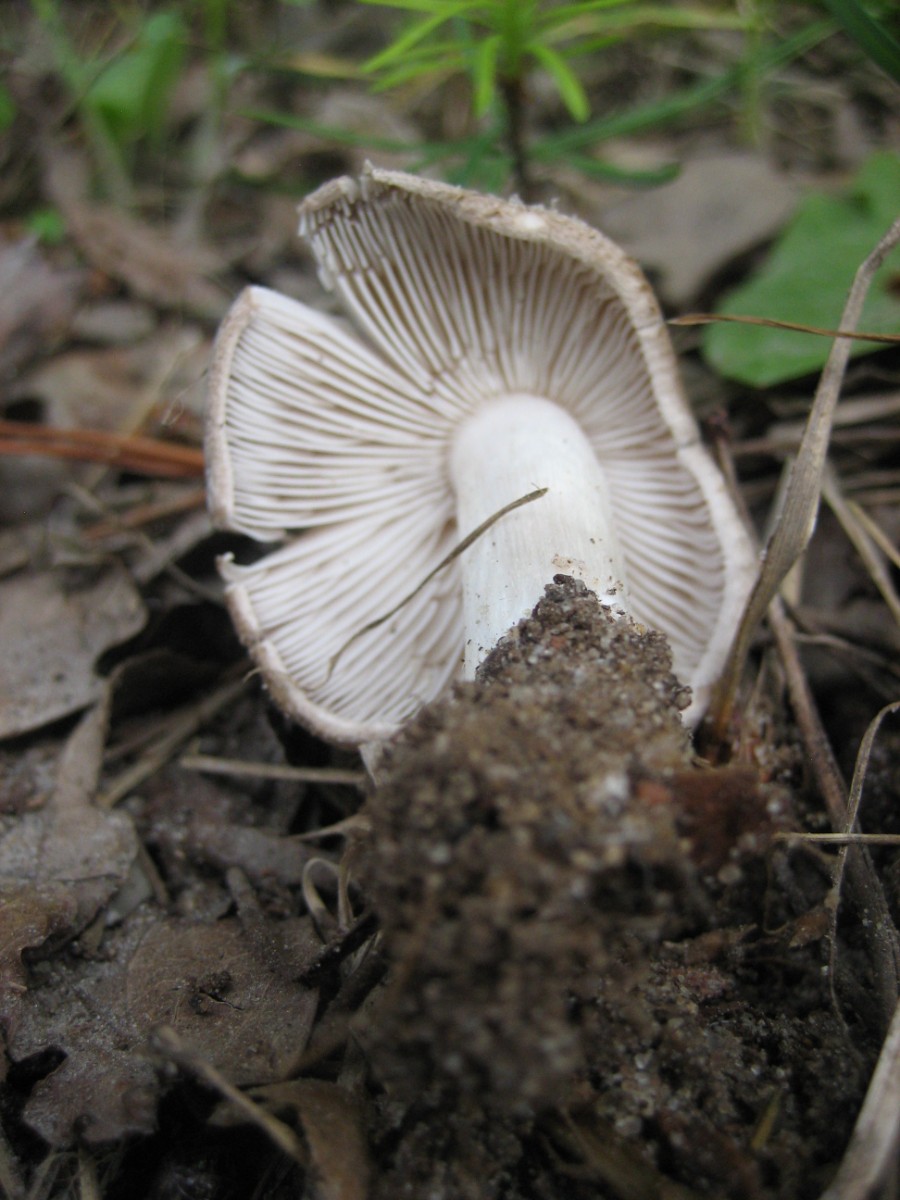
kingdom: Fungi
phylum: Basidiomycota
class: Agaricomycetes
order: Agaricales
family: Tricholomataceae
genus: Tricholoma
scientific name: Tricholoma scalpturatum
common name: gulplettet ridderhat
